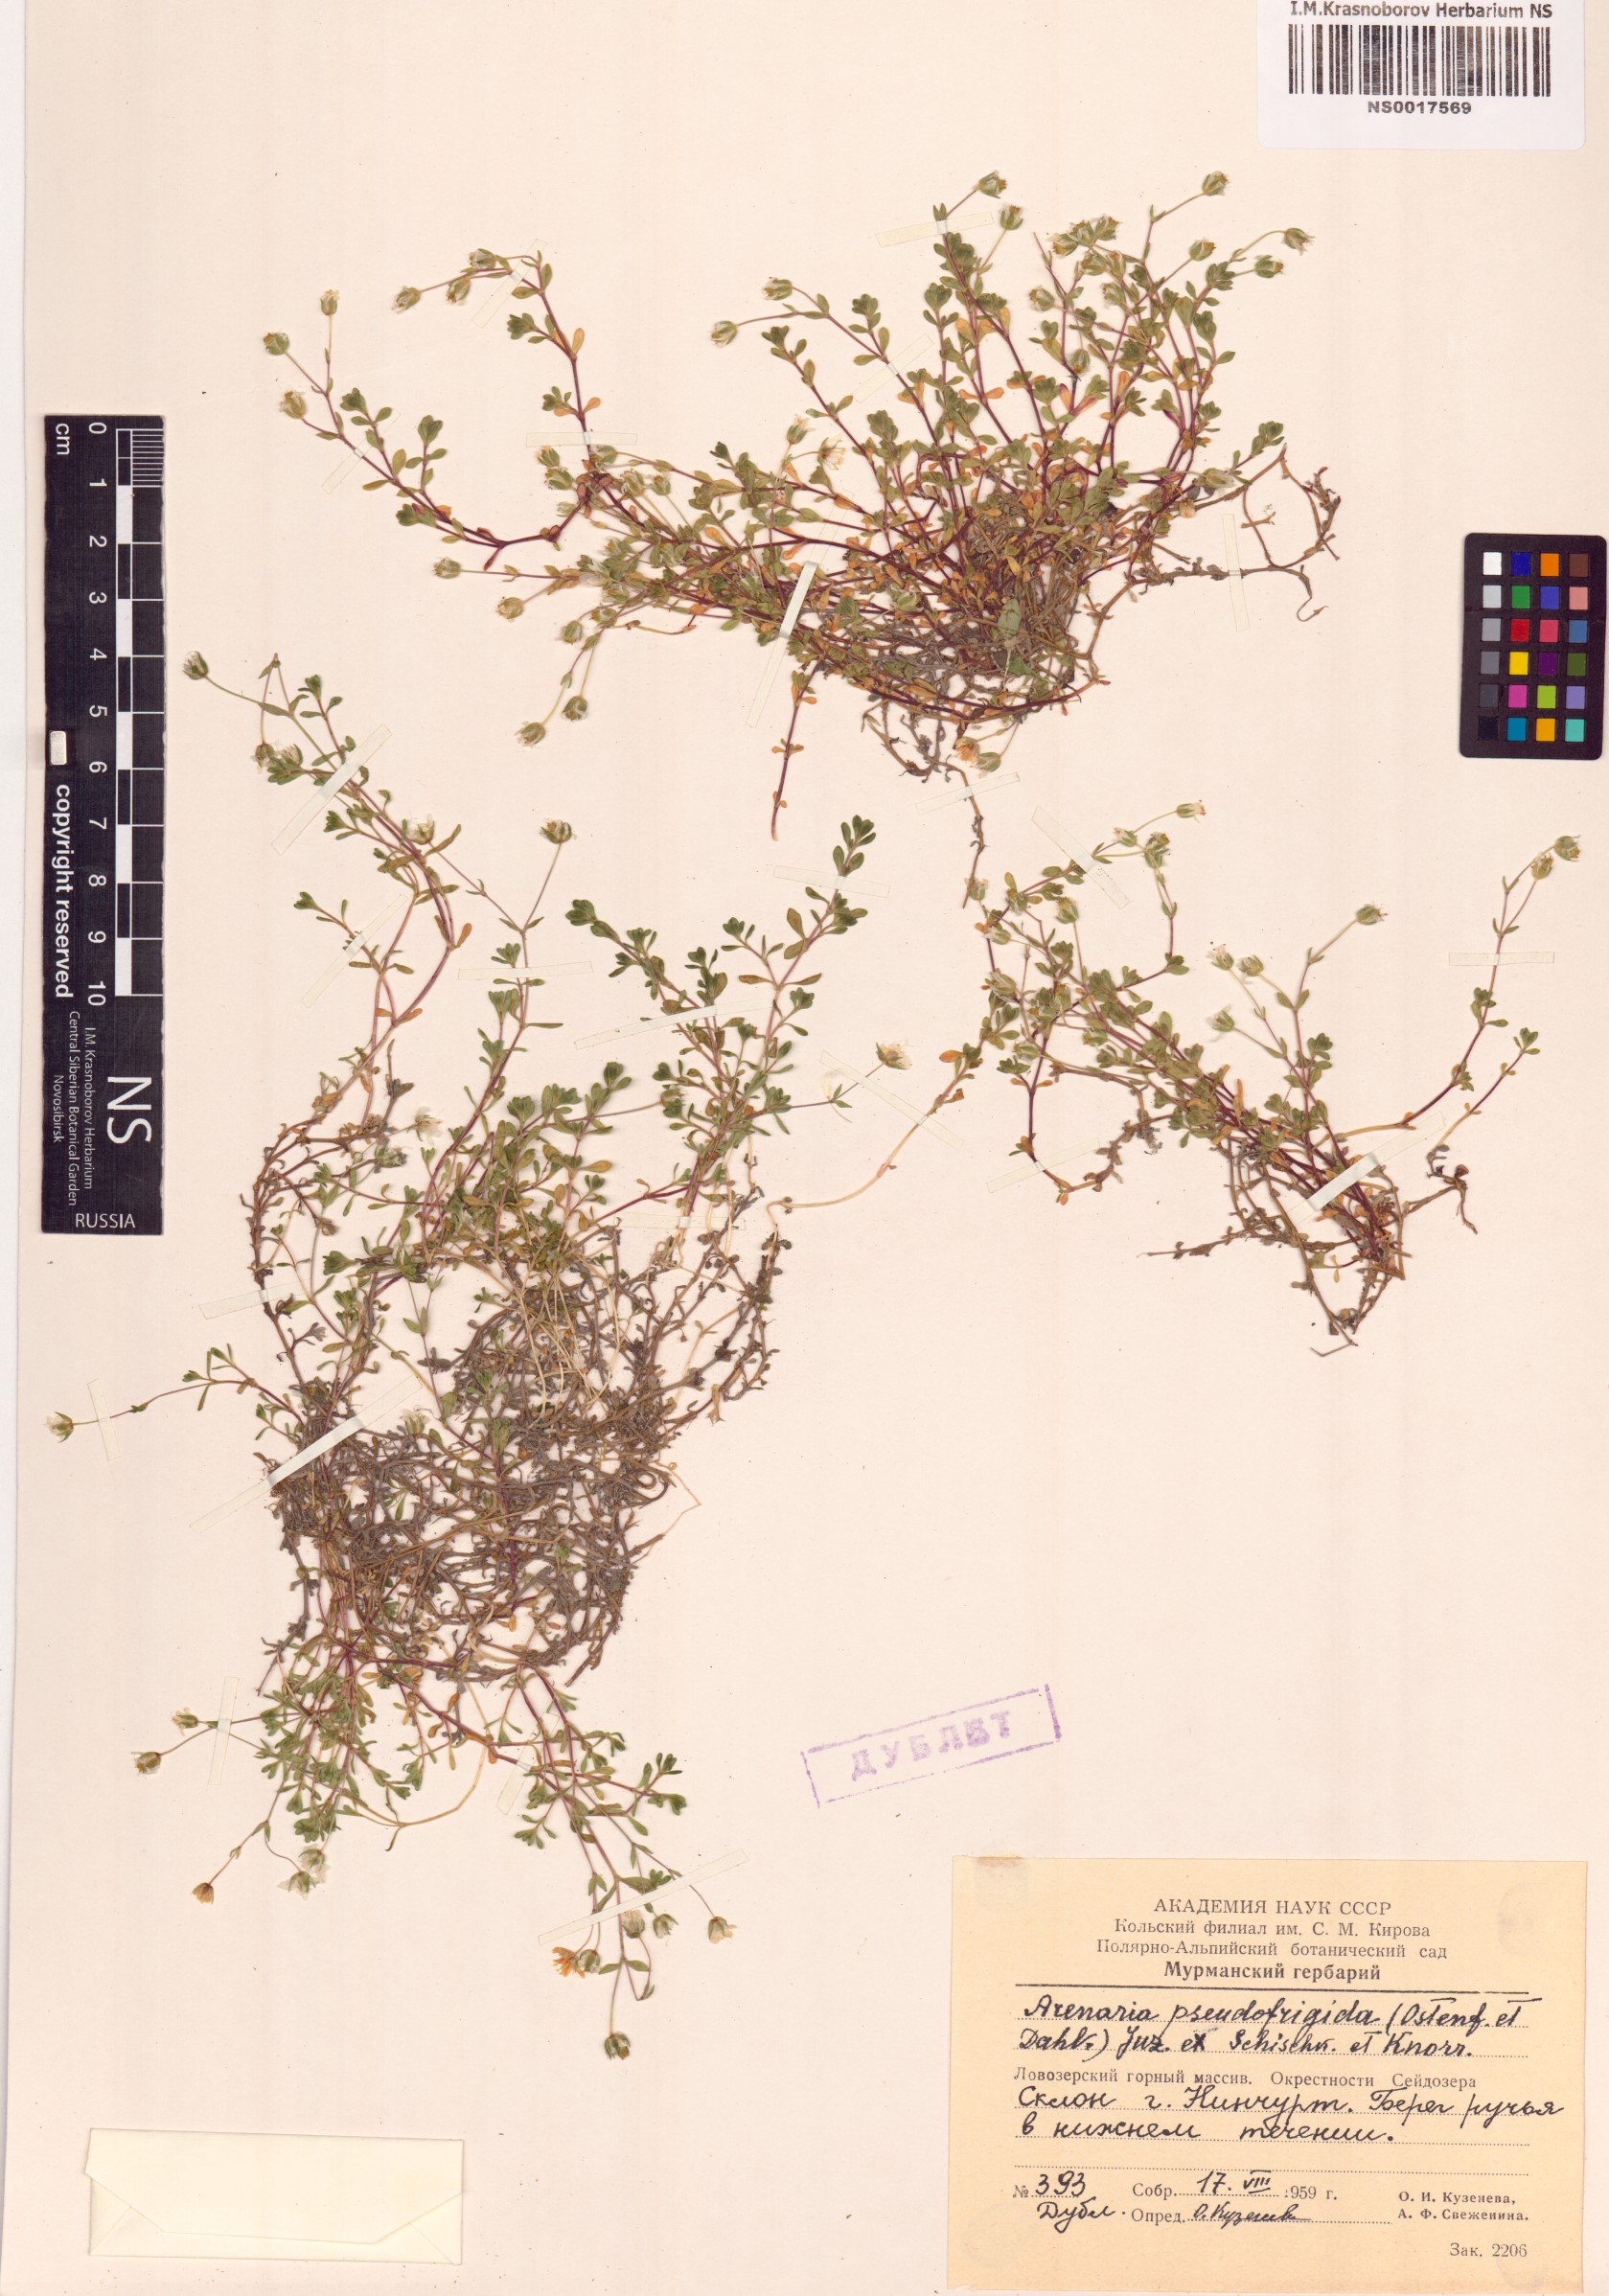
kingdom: Plantae
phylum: Tracheophyta
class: Magnoliopsida
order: Caryophyllales
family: Caryophyllaceae
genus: Arenaria
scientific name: Arenaria pseudofrigida
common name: Tundra sandwort
